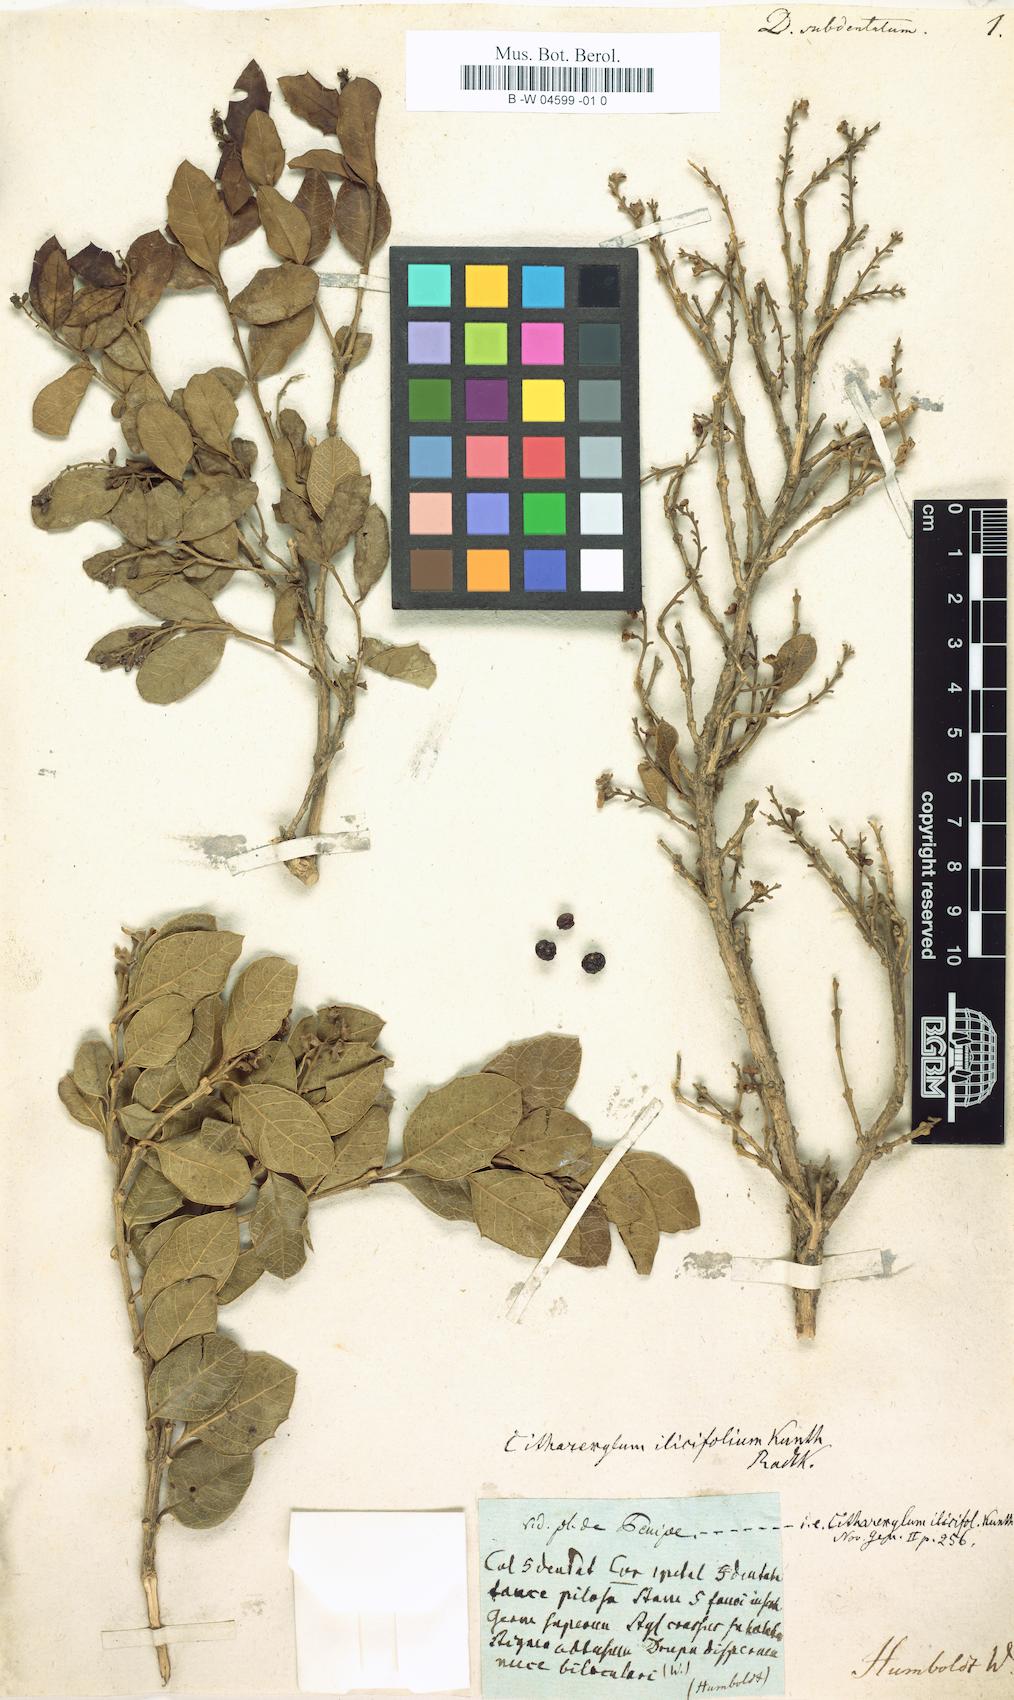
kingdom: Plantae
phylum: Tracheophyta
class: Magnoliopsida
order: Lamiales
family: Verbenaceae
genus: Citharexylum
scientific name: Citharexylum ilicifolium
